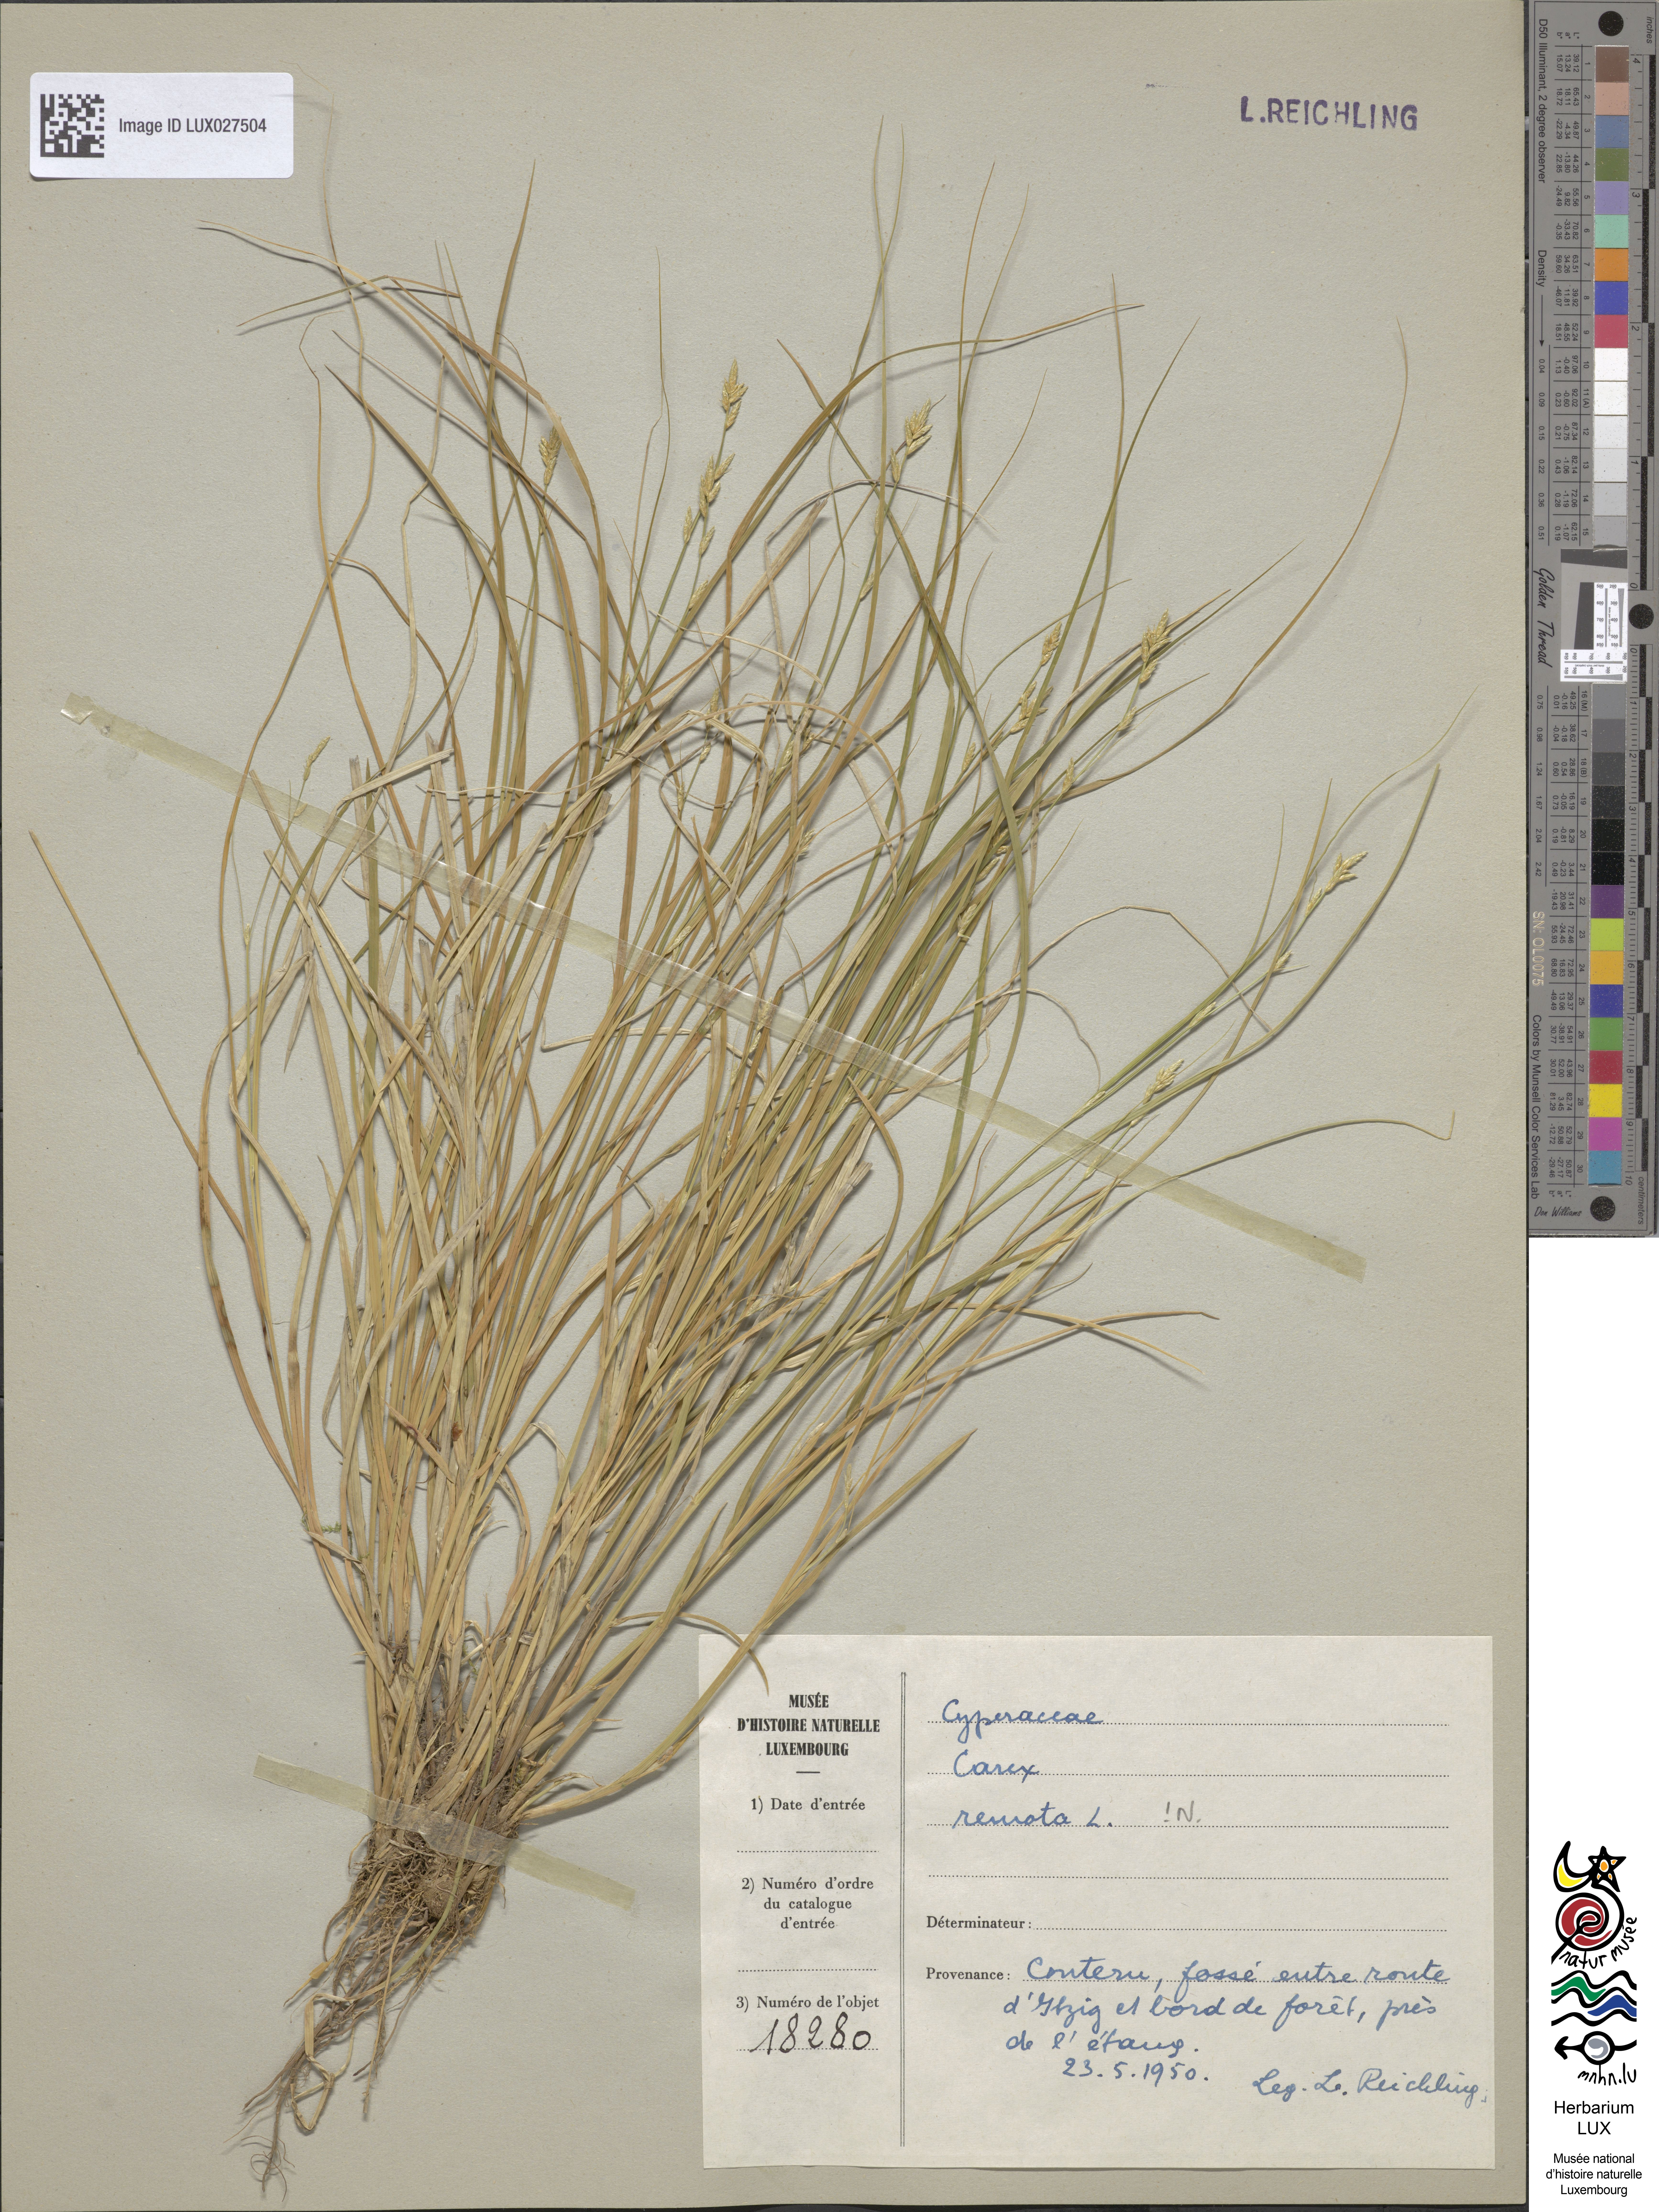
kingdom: Plantae
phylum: Tracheophyta
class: Liliopsida
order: Poales
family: Cyperaceae
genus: Carex
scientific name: Carex remota
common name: Remote sedge
